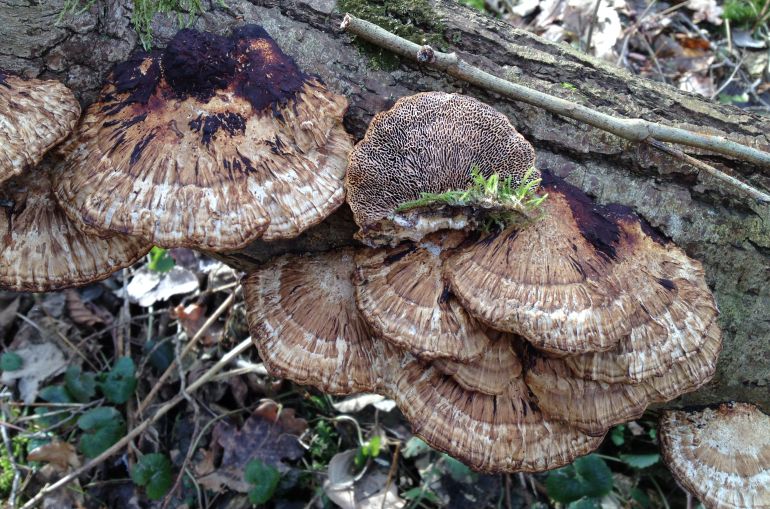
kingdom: Fungi
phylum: Basidiomycota
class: Agaricomycetes
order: Polyporales
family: Polyporaceae
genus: Daedaleopsis
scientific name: Daedaleopsis confragosa
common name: rødmende læderporesvamp
